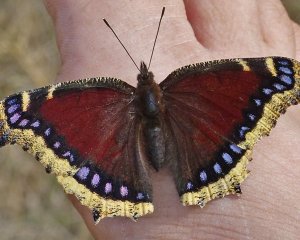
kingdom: Animalia
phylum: Arthropoda
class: Insecta
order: Lepidoptera
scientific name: Lepidoptera
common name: Butterflies
